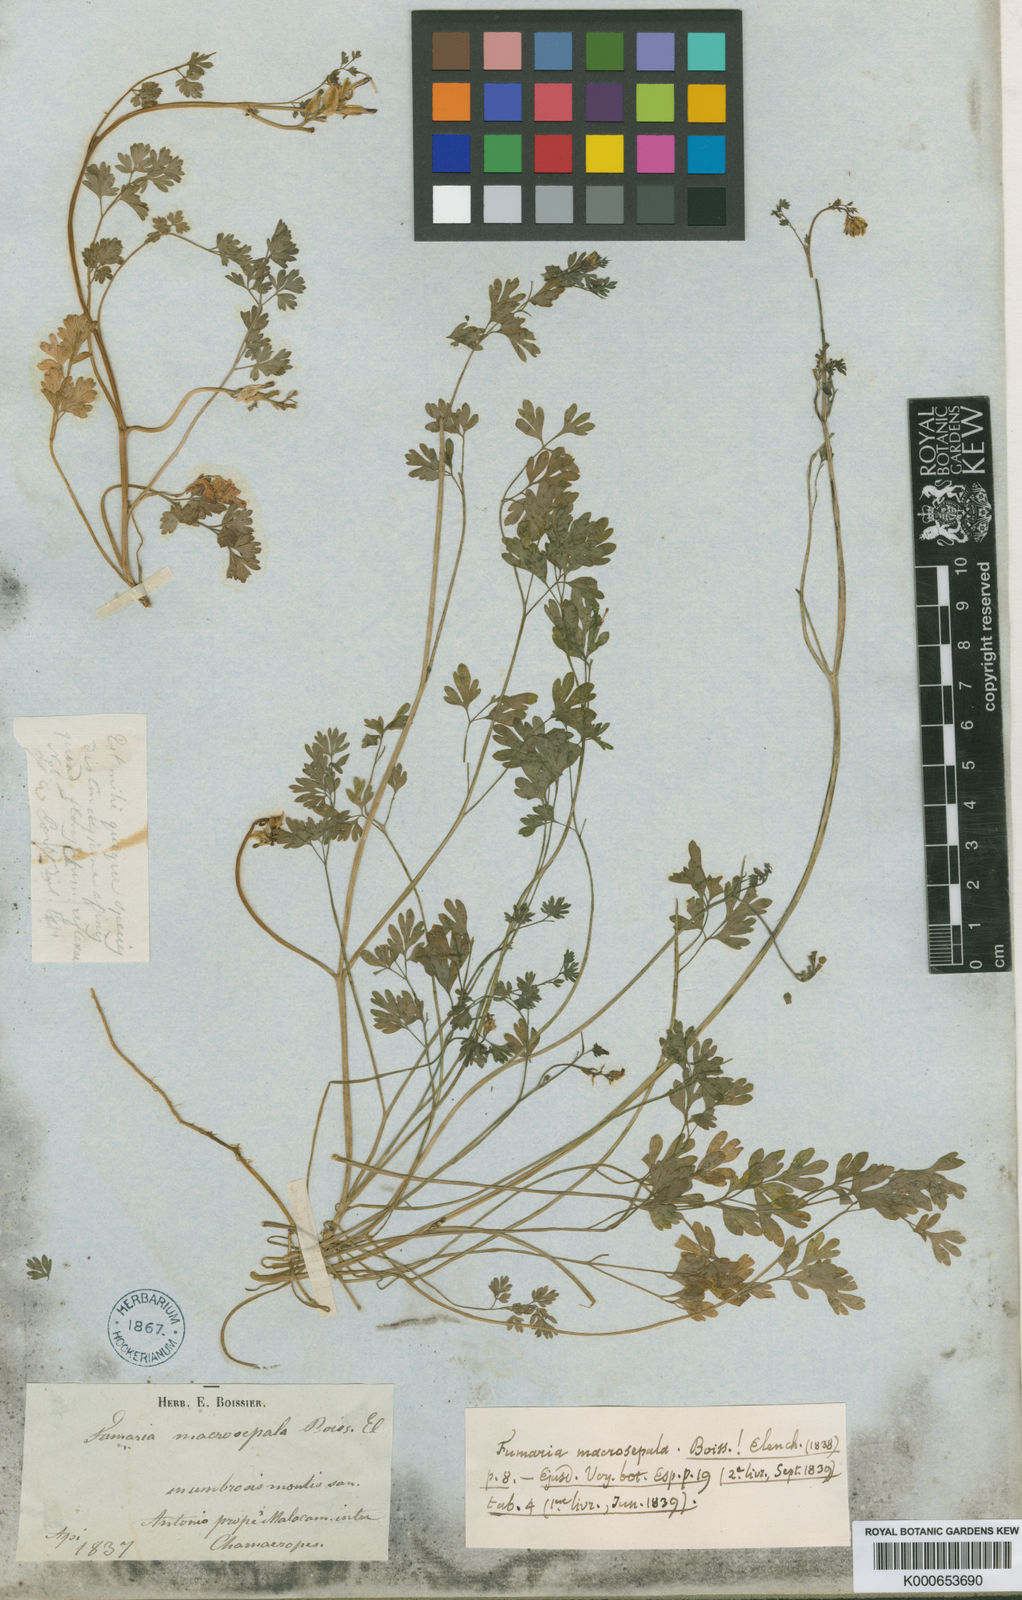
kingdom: Plantae
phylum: Tracheophyta
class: Magnoliopsida
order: Ranunculales
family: Papaveraceae
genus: Fumaria
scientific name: Fumaria macrosepala
